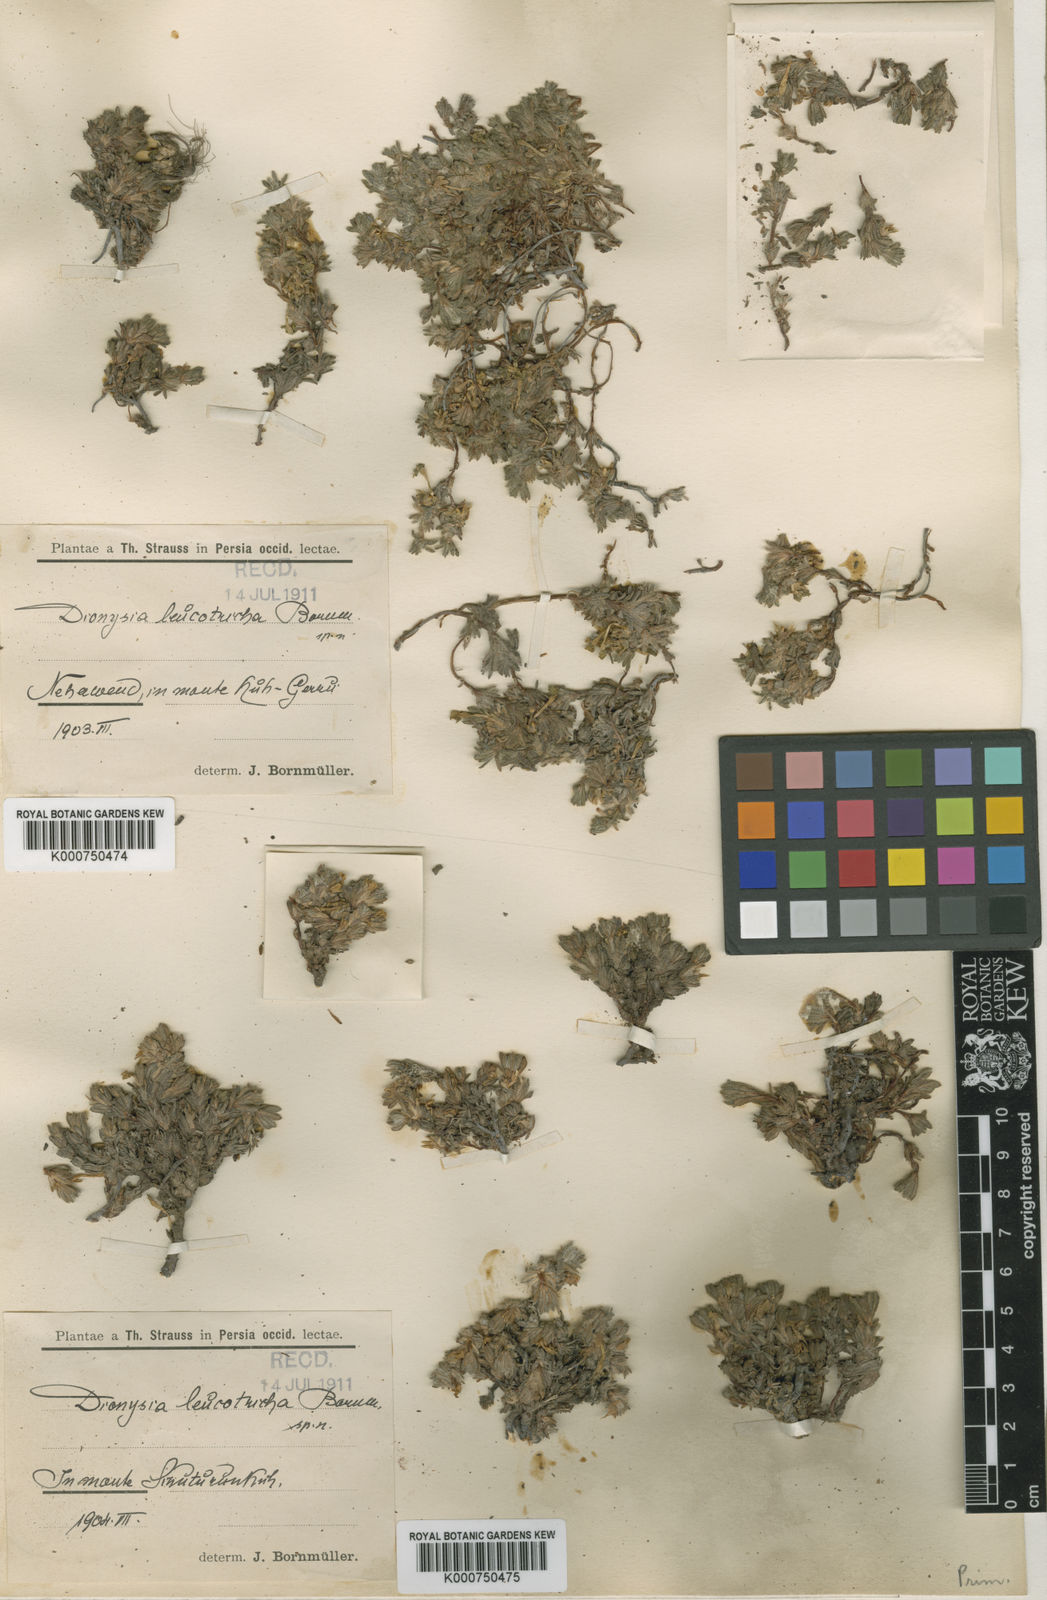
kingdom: Plantae
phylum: Tracheophyta
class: Magnoliopsida
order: Ericales
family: Primulaceae
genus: Dionysia
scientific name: Dionysia leucotricha
